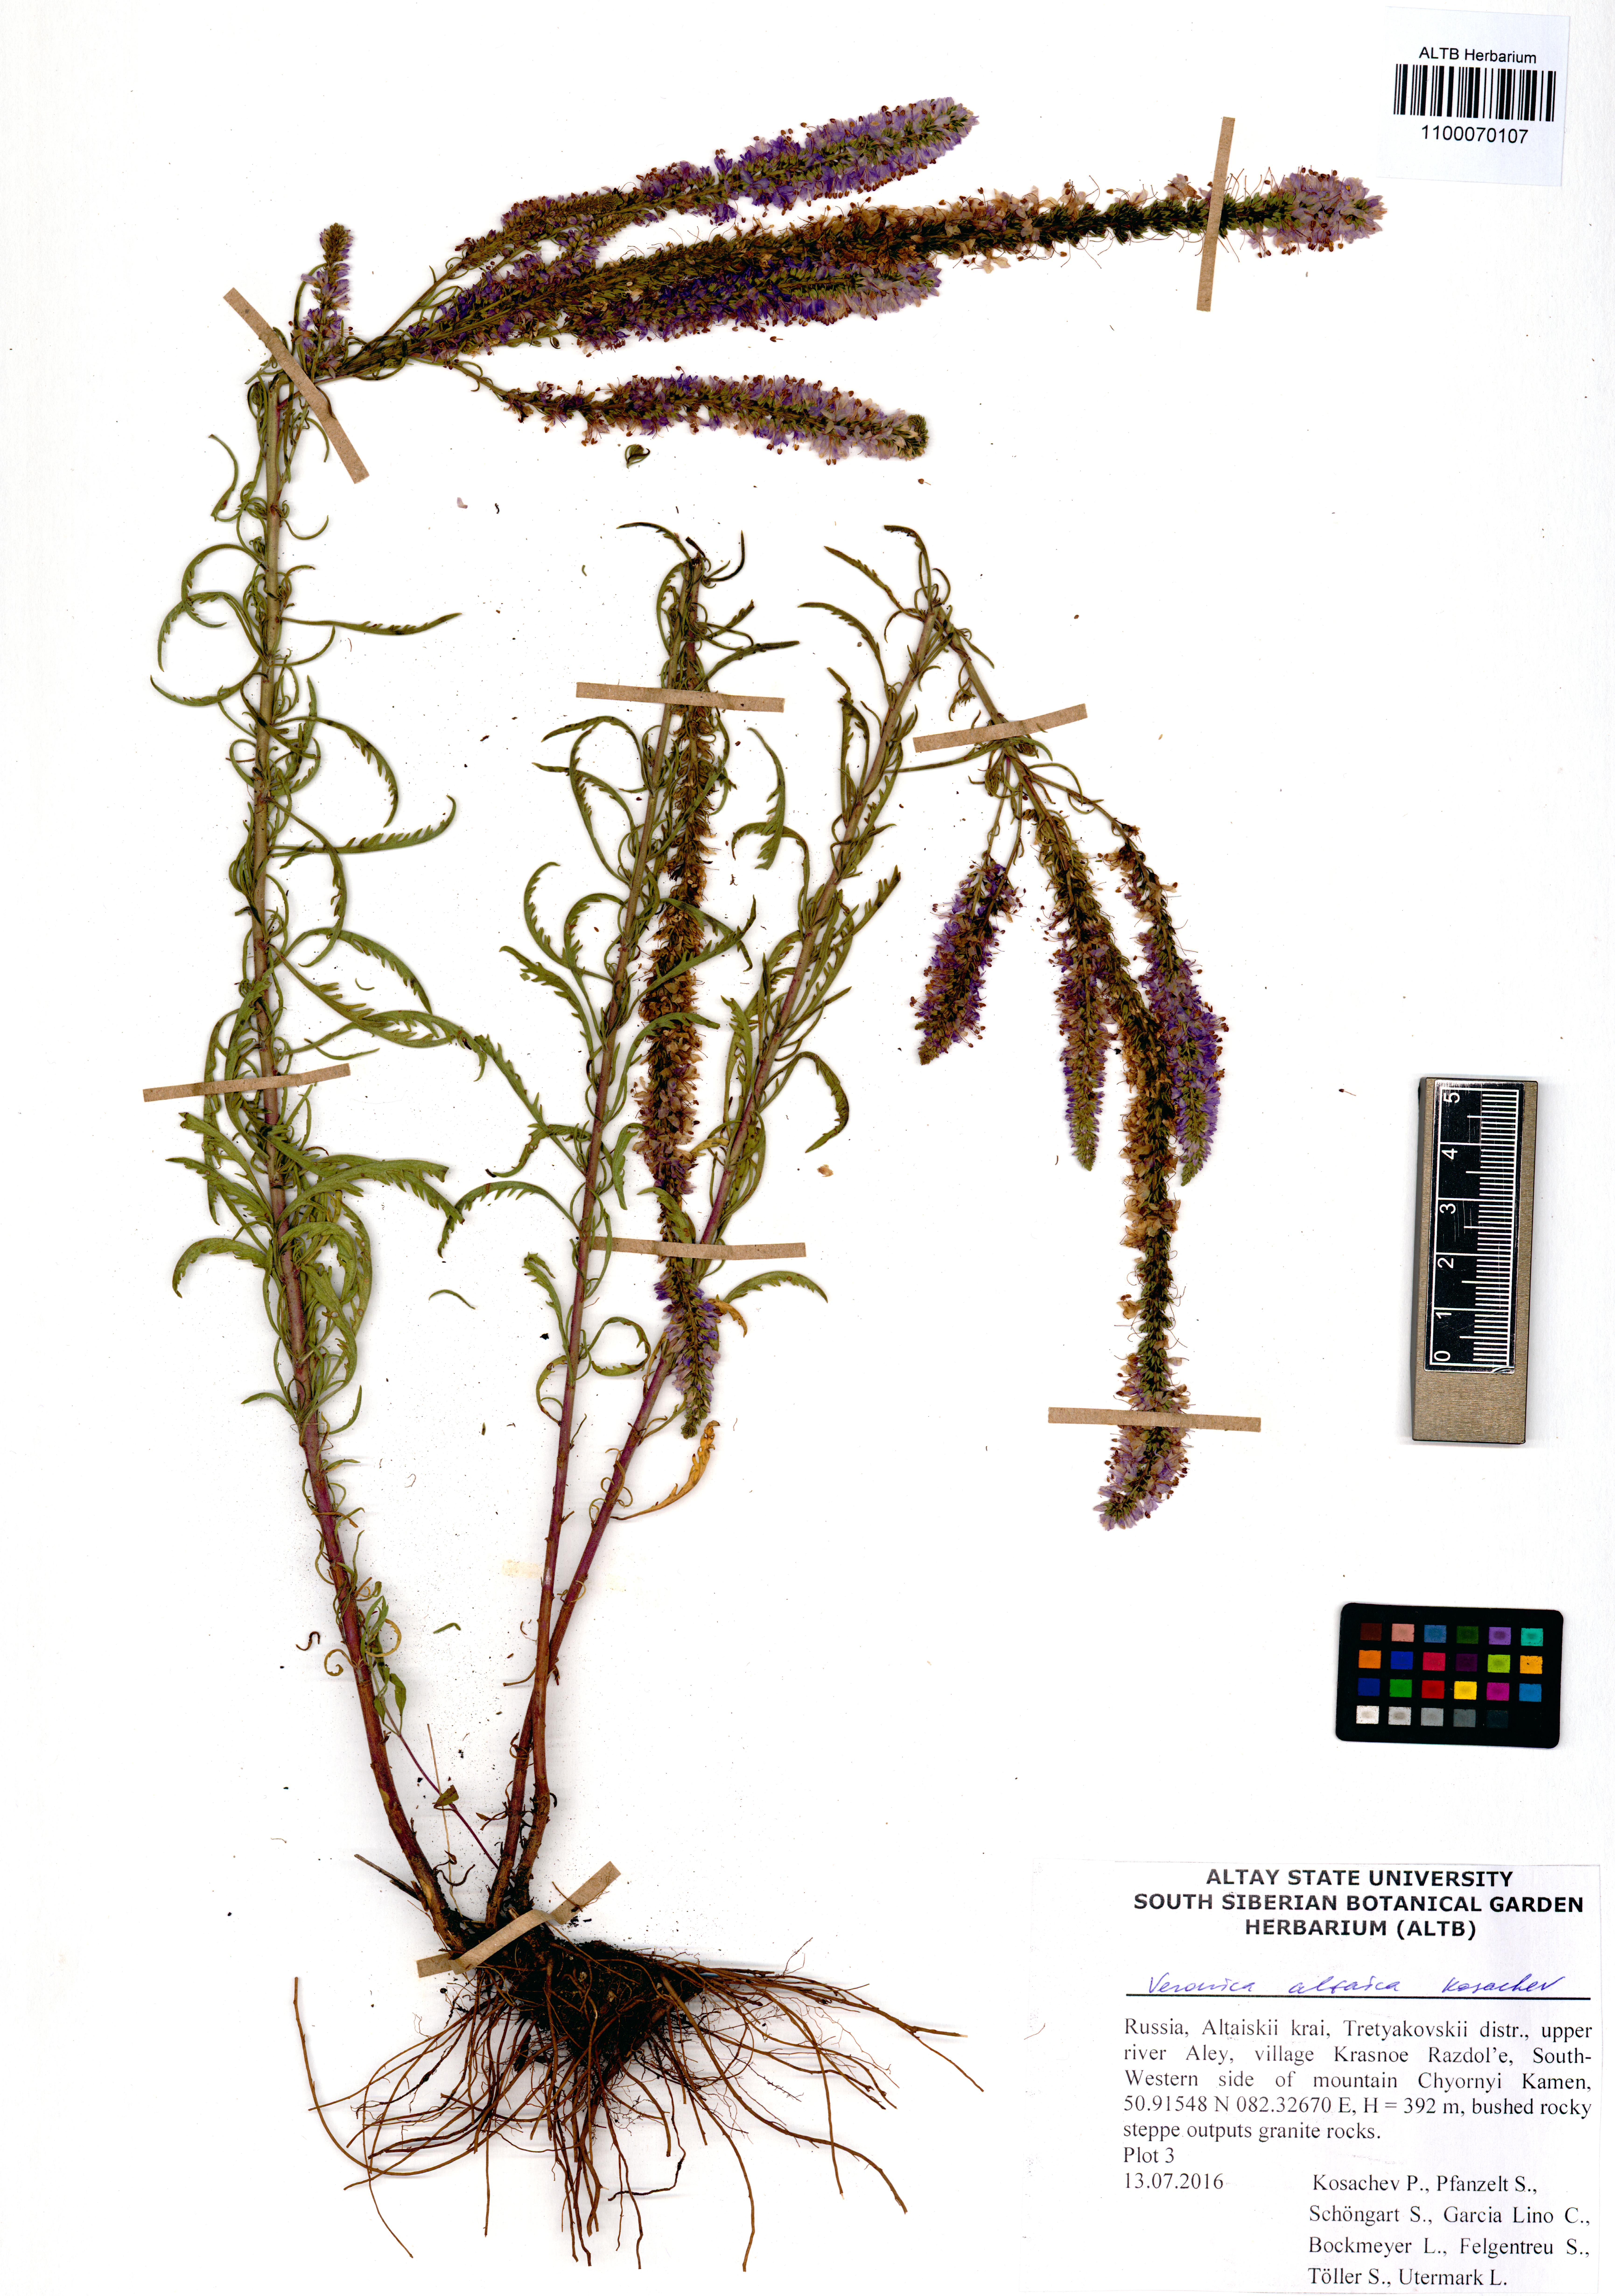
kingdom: Plantae
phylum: Tracheophyta
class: Magnoliopsida
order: Lamiales
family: Plantaginaceae
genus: Veronica
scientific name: Veronica altaica
